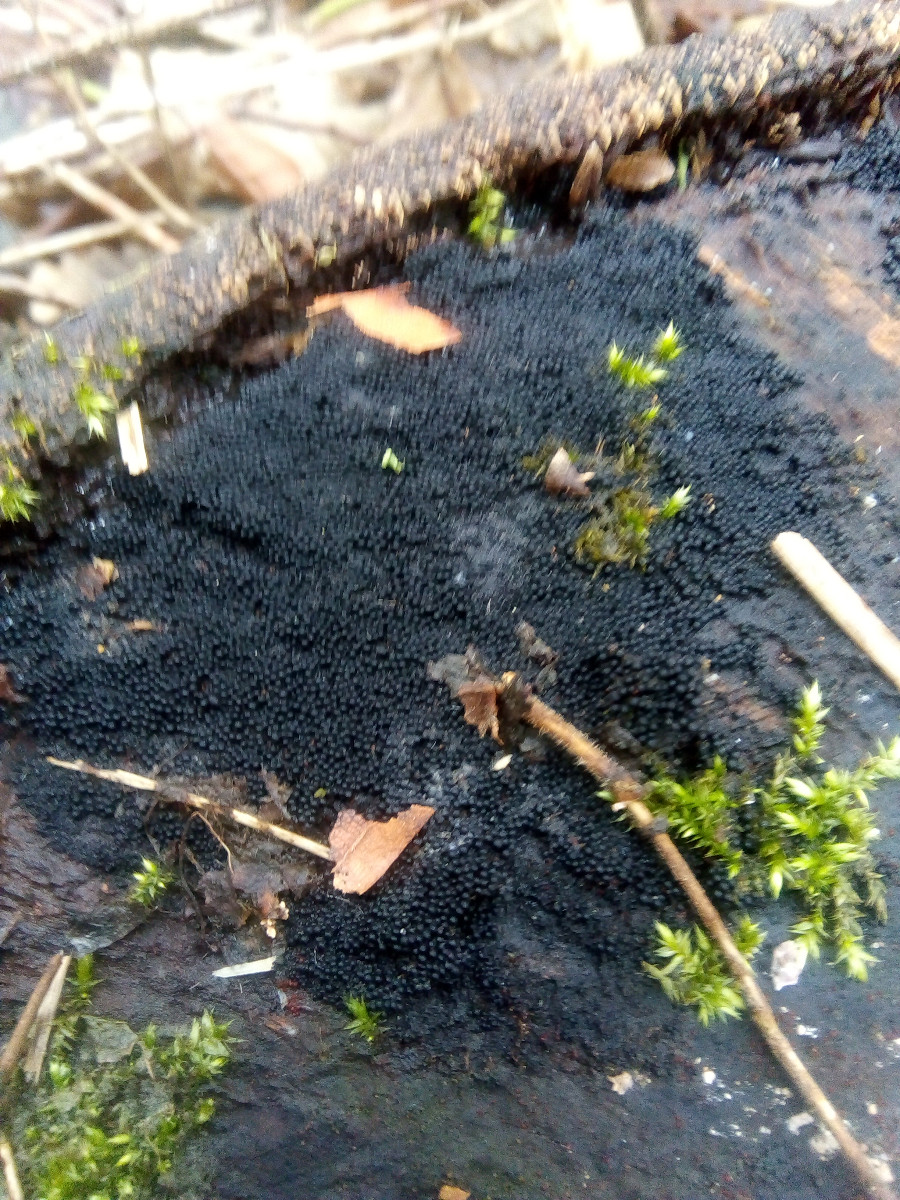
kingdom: Fungi
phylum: Ascomycota
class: Sordariomycetes
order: Sordariales
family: Helminthosphaeriaceae
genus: Ruzenia
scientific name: Ruzenia spermoides
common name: glat børstekerne
